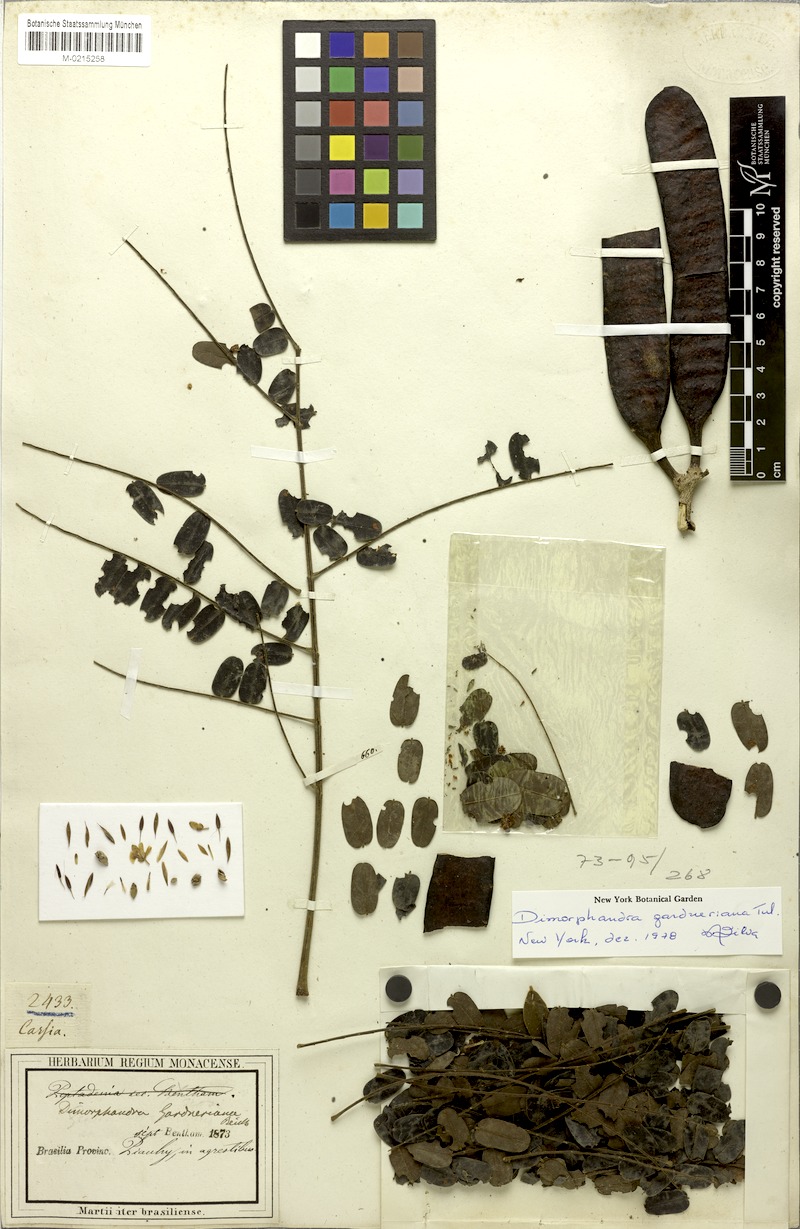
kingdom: Plantae
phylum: Tracheophyta
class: Magnoliopsida
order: Fabales
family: Fabaceae
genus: Dimorphandra
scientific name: Dimorphandra gardneriana
